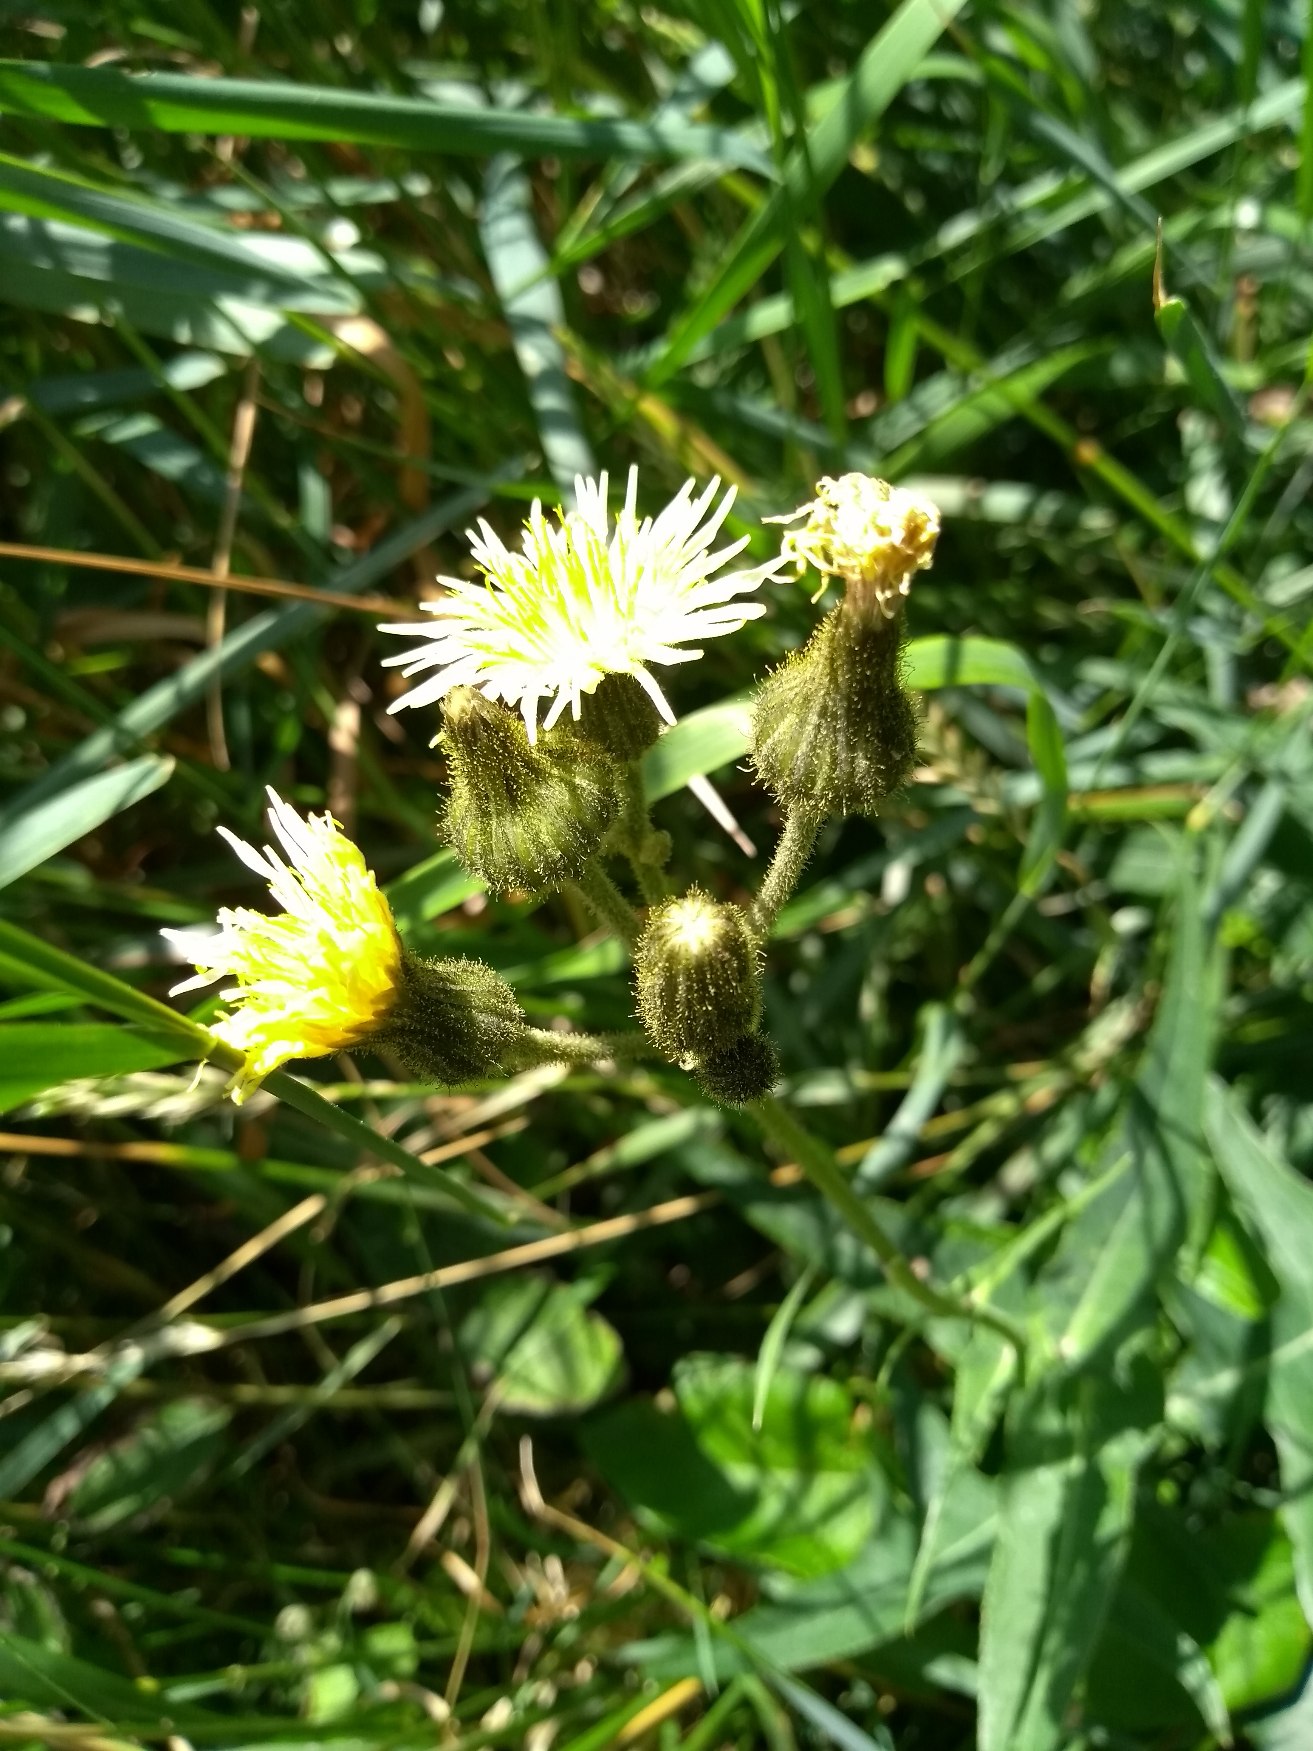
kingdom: Plantae
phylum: Tracheophyta
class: Magnoliopsida
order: Asterales
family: Asteraceae
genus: Sonchus
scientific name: Sonchus palustris
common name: Kær-svinemælk
